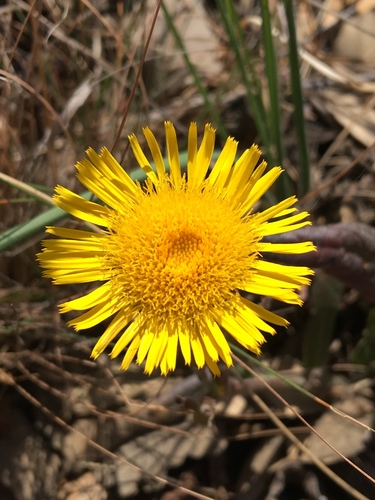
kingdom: Plantae
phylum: Tracheophyta
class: Magnoliopsida
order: Asterales
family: Asteraceae
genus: Pulicaria
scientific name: Pulicaria odora
